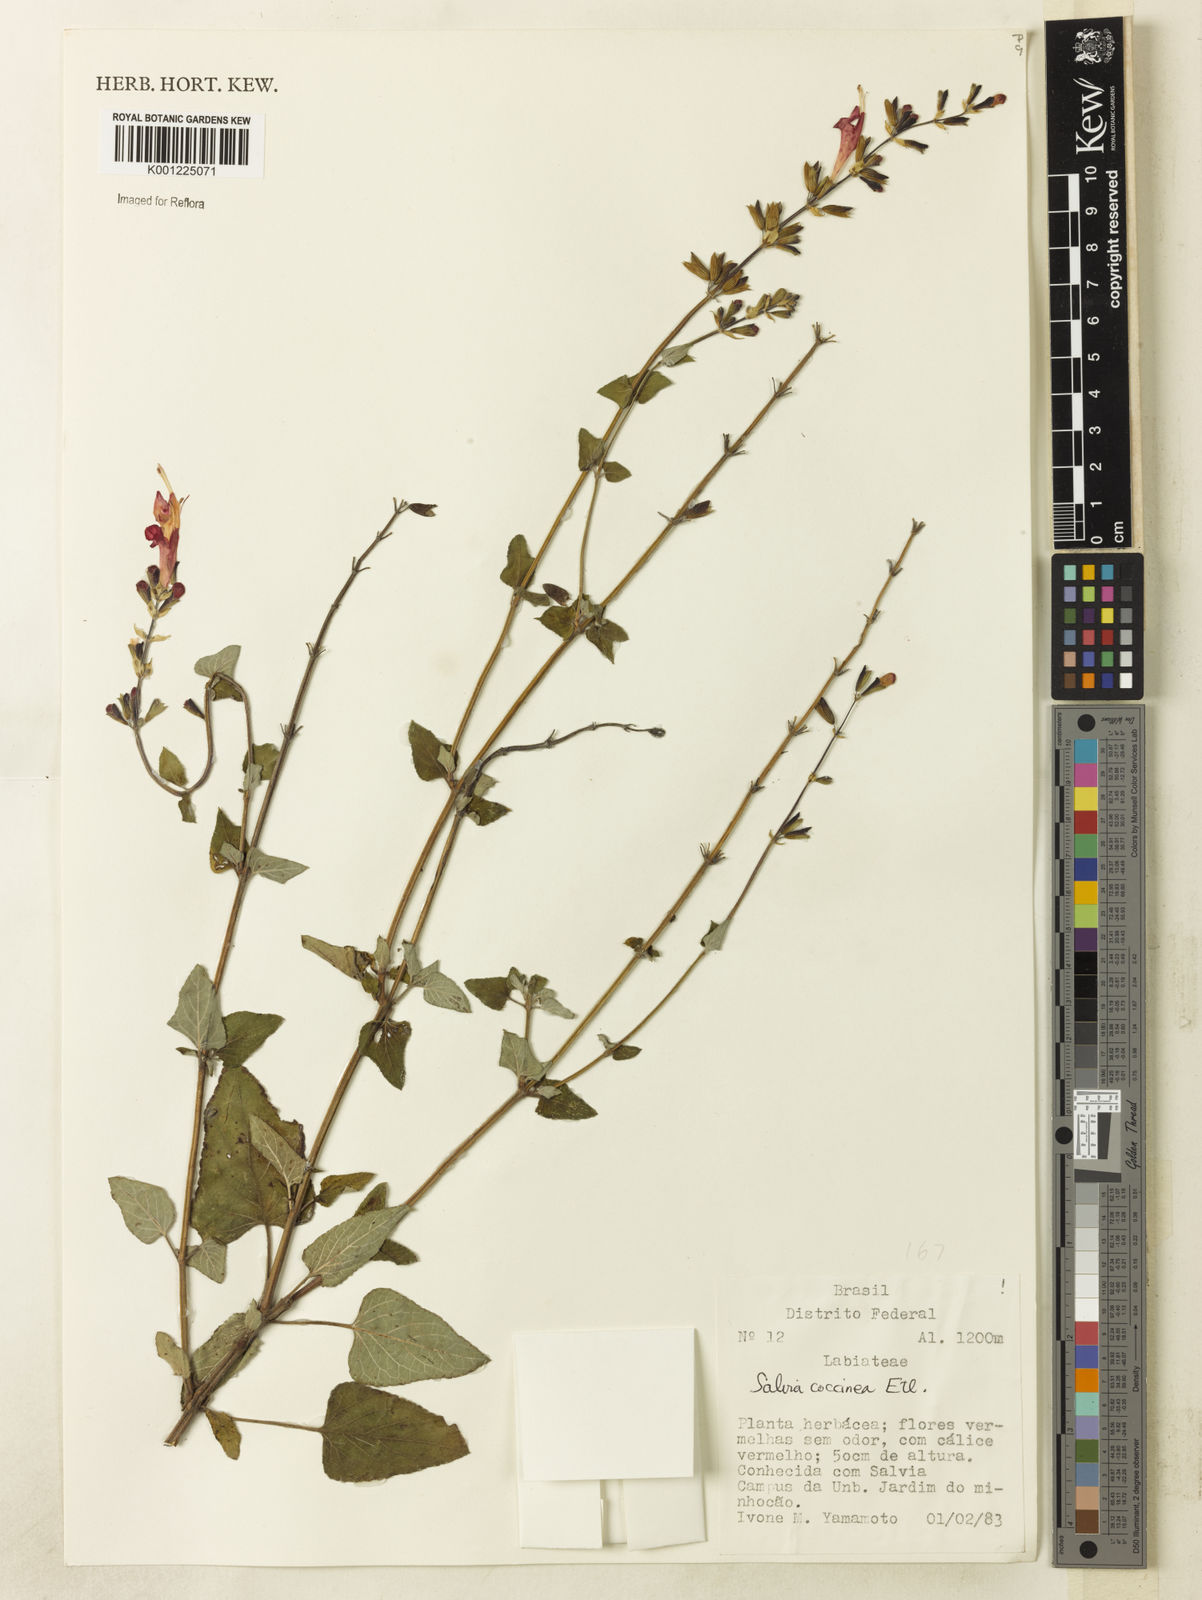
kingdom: Plantae
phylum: Tracheophyta
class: Magnoliopsida
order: Lamiales
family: Lamiaceae
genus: Salvia
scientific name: Salvia coccinea
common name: Blood sage
